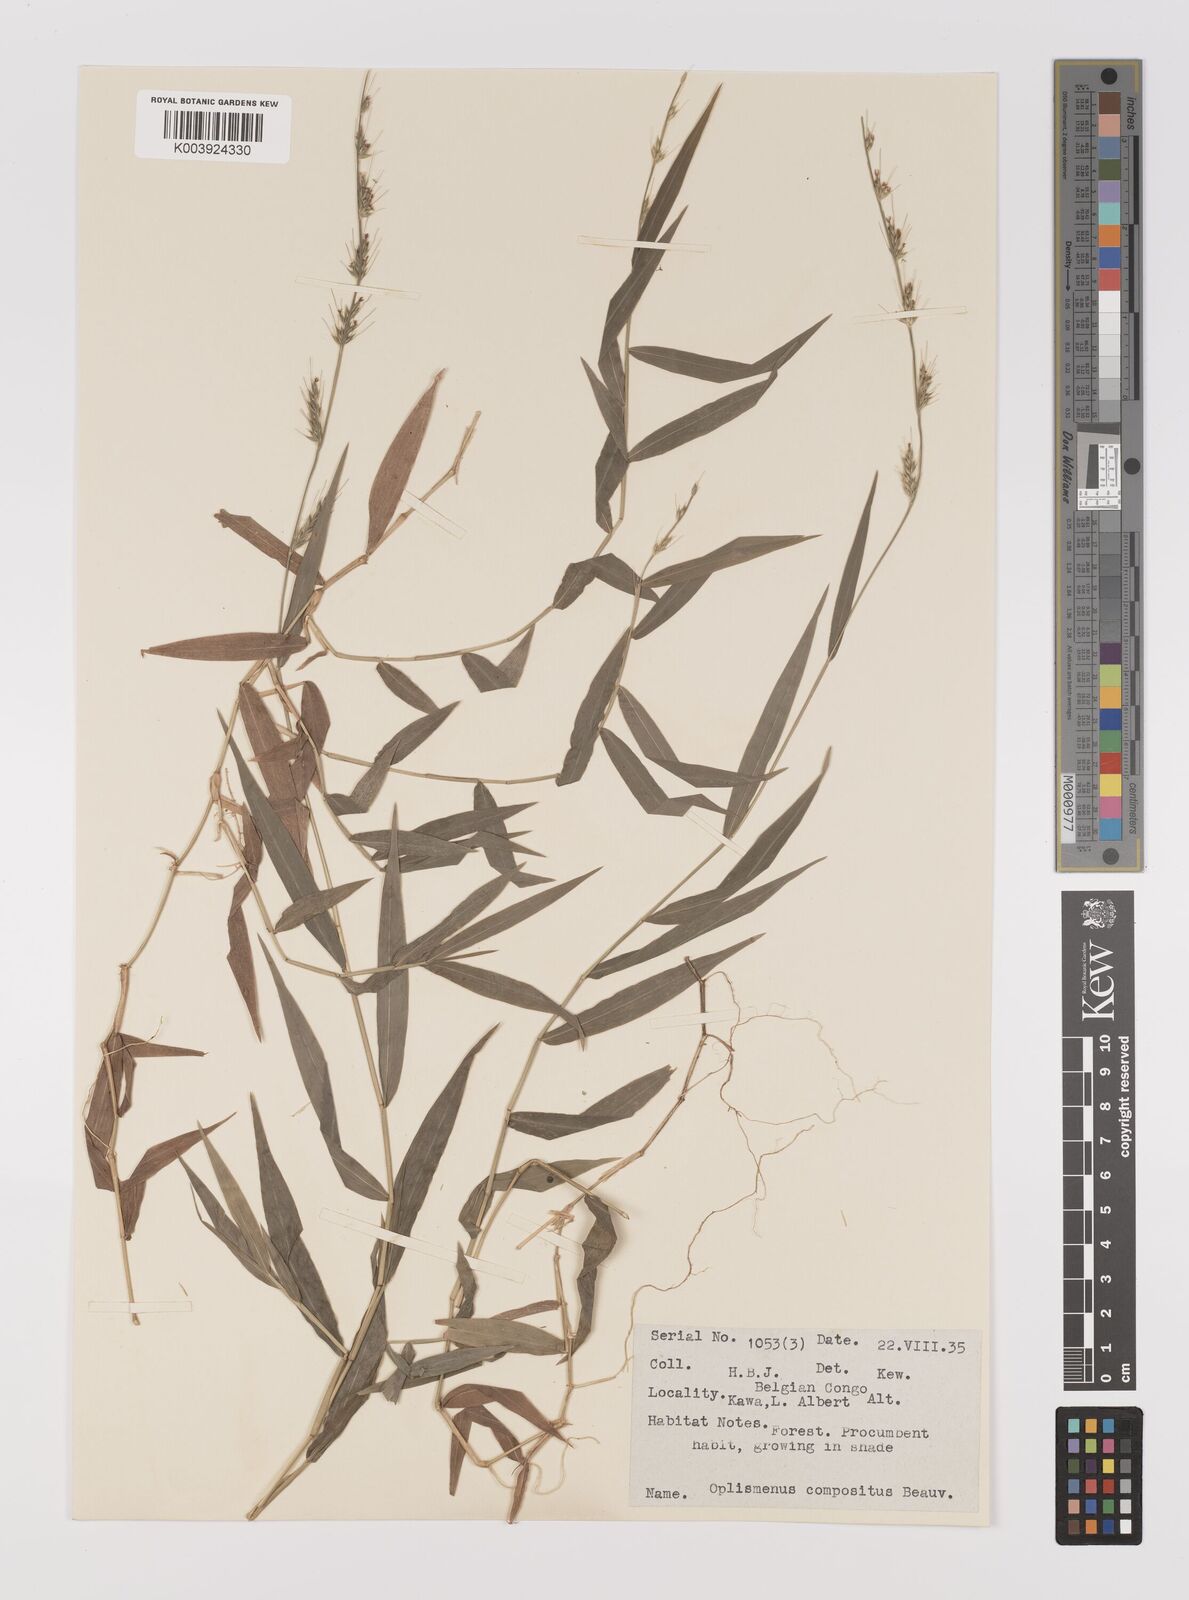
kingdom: Plantae
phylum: Tracheophyta
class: Liliopsida
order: Poales
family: Poaceae
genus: Oplismenus
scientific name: Oplismenus hirtellus
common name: Basketgrass
